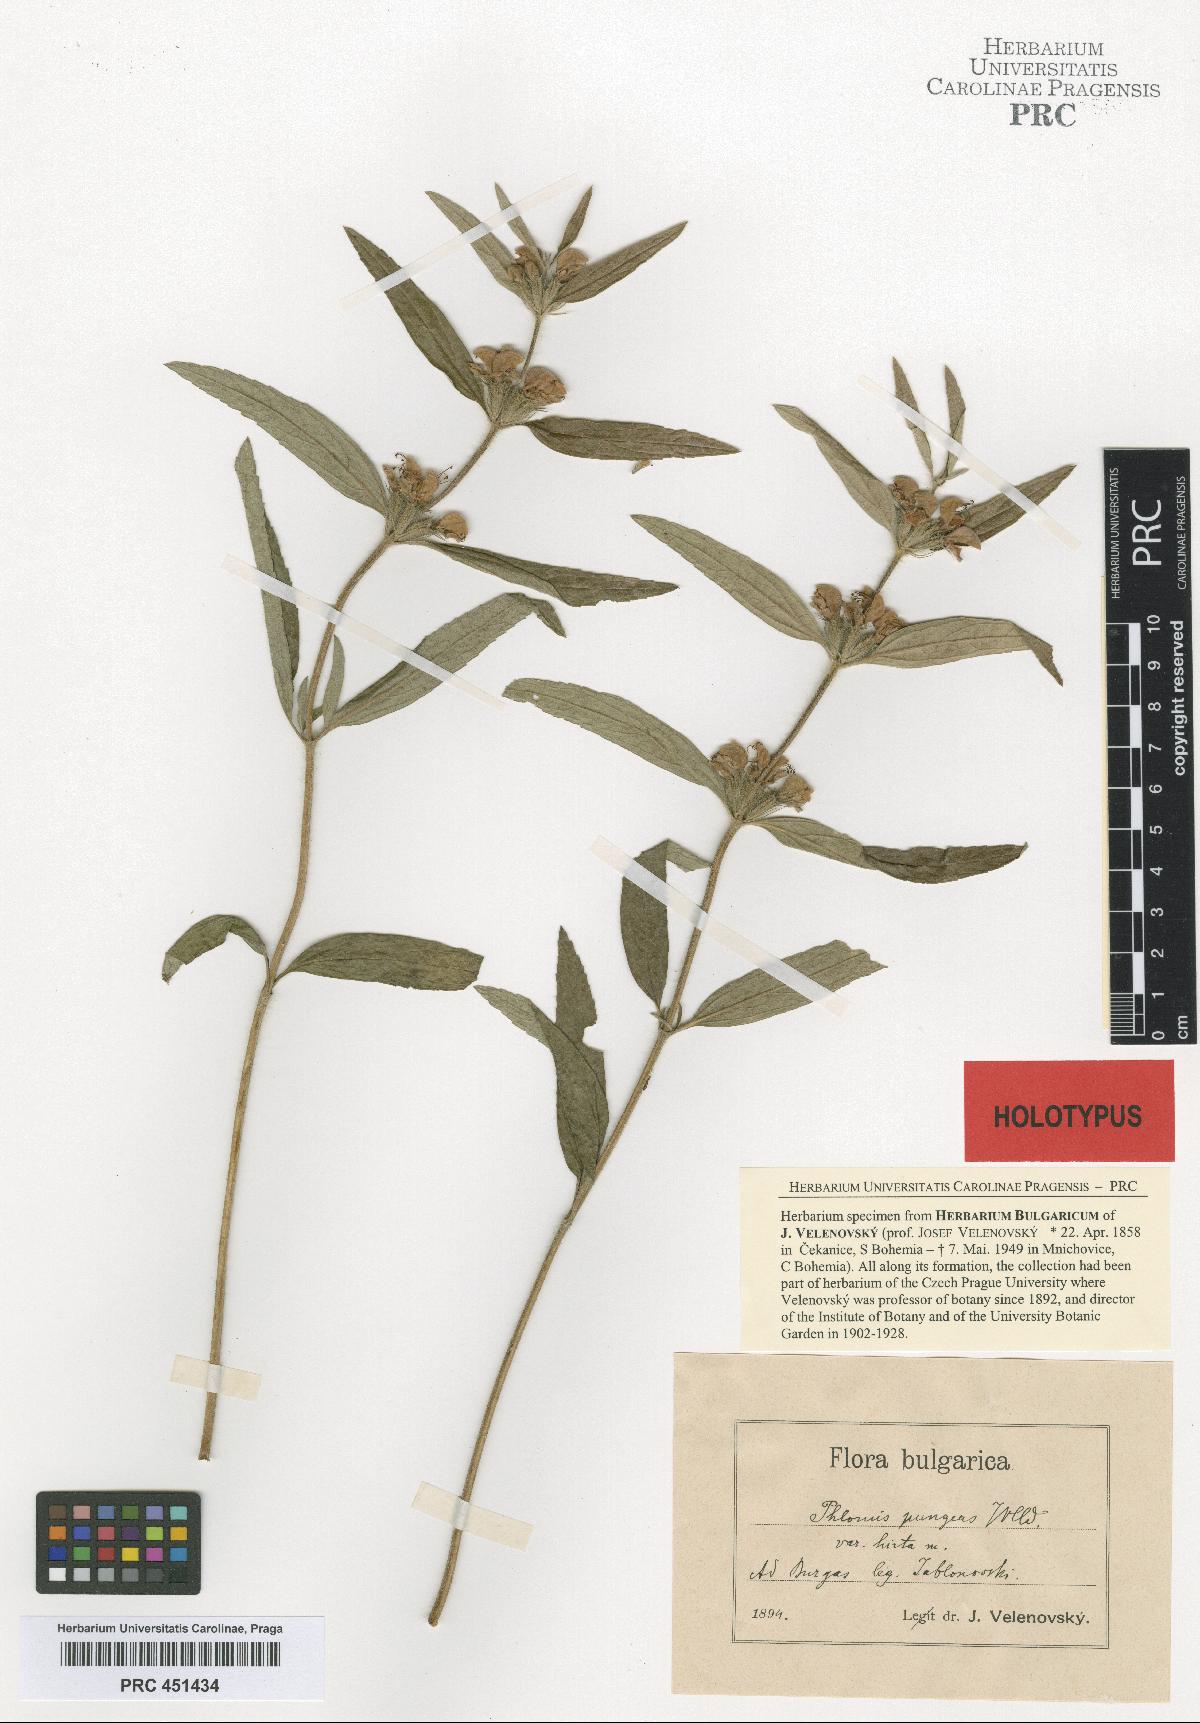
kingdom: Plantae
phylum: Tracheophyta
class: Magnoliopsida
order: Lamiales
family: Lamiaceae
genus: Phlomis
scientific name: Phlomis herba-venti
